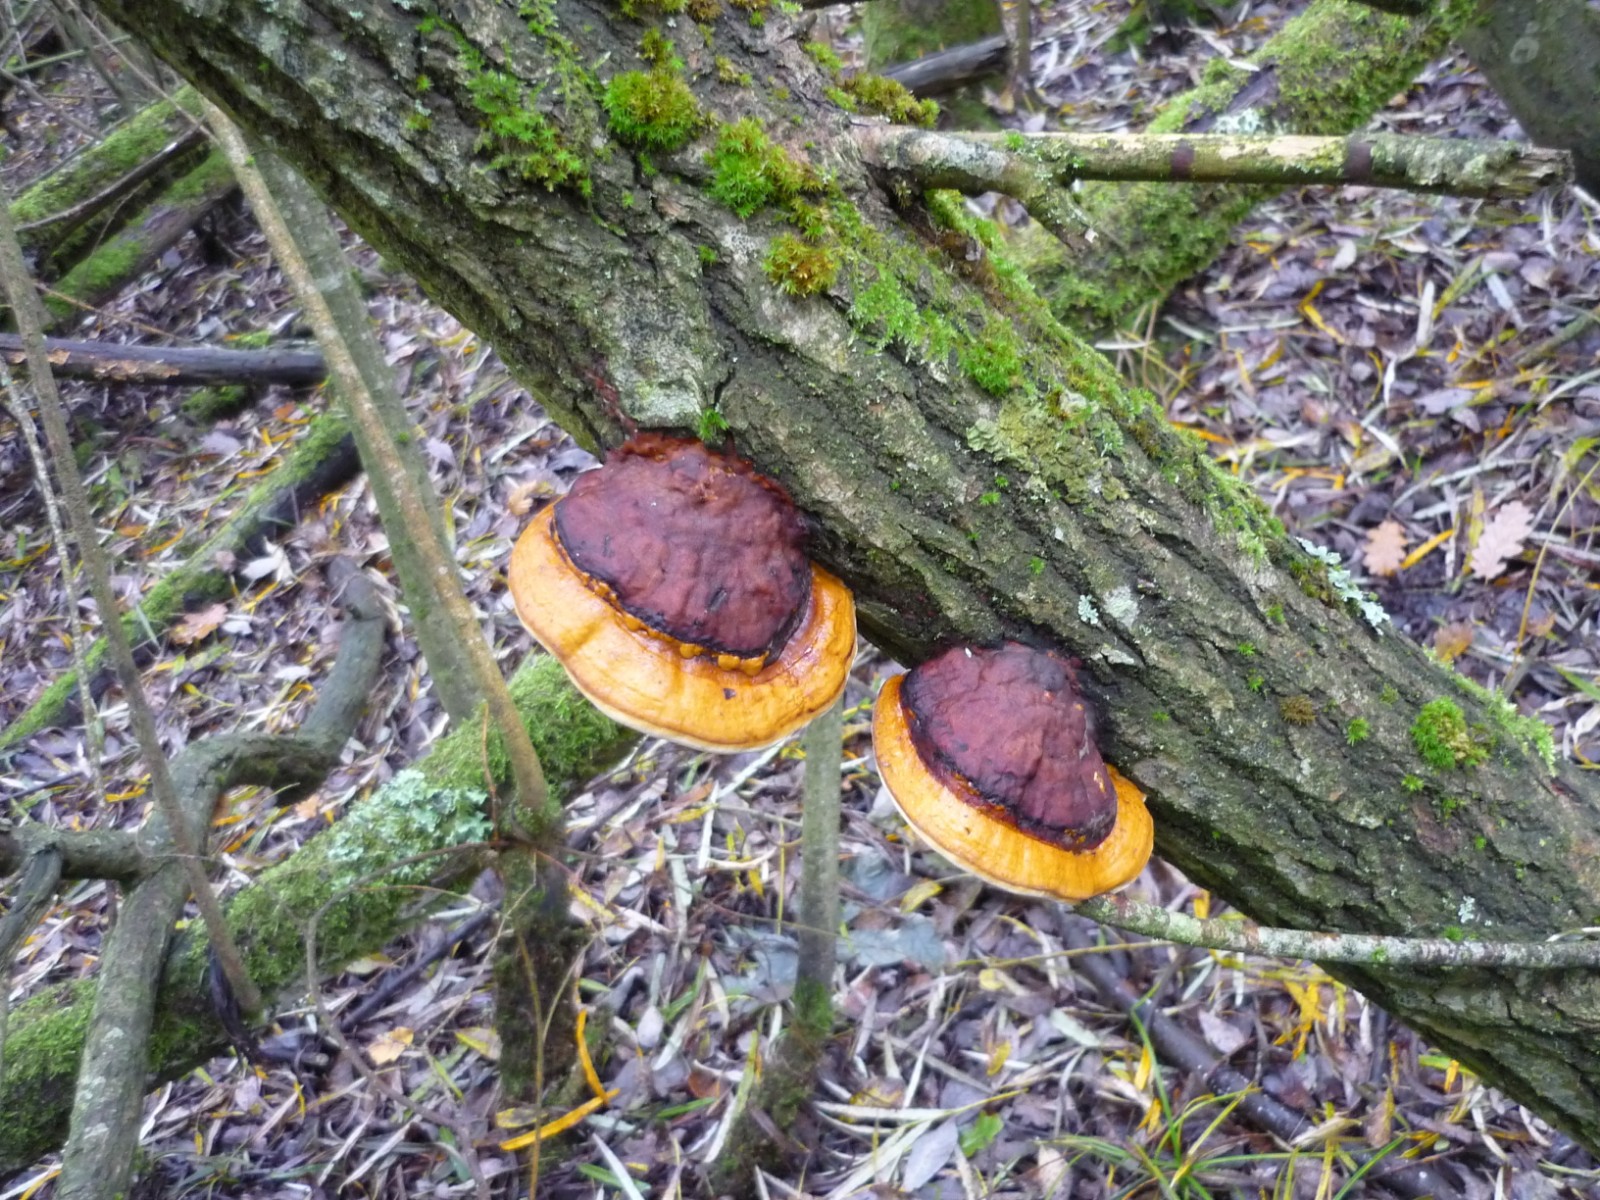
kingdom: Fungi
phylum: Basidiomycota
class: Agaricomycetes
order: Polyporales
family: Fomitopsidaceae
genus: Fomitopsis
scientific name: Fomitopsis pinicola
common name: randbæltet hovporesvamp
